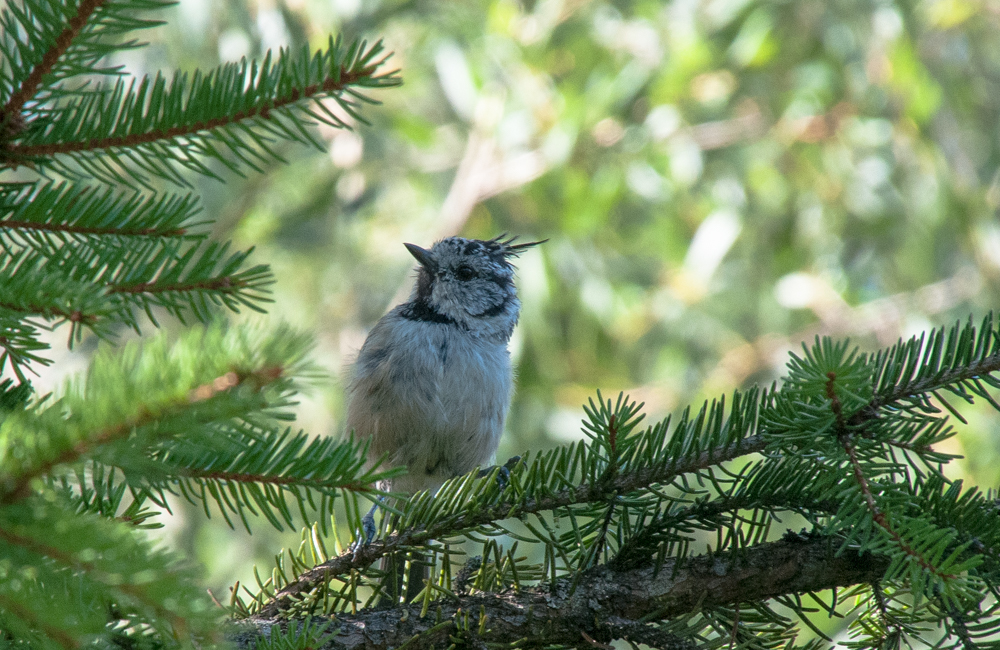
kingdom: Animalia
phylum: Chordata
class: Aves
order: Passeriformes
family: Paridae
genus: Lophophanes
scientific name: Lophophanes cristatus
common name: European crested tit
